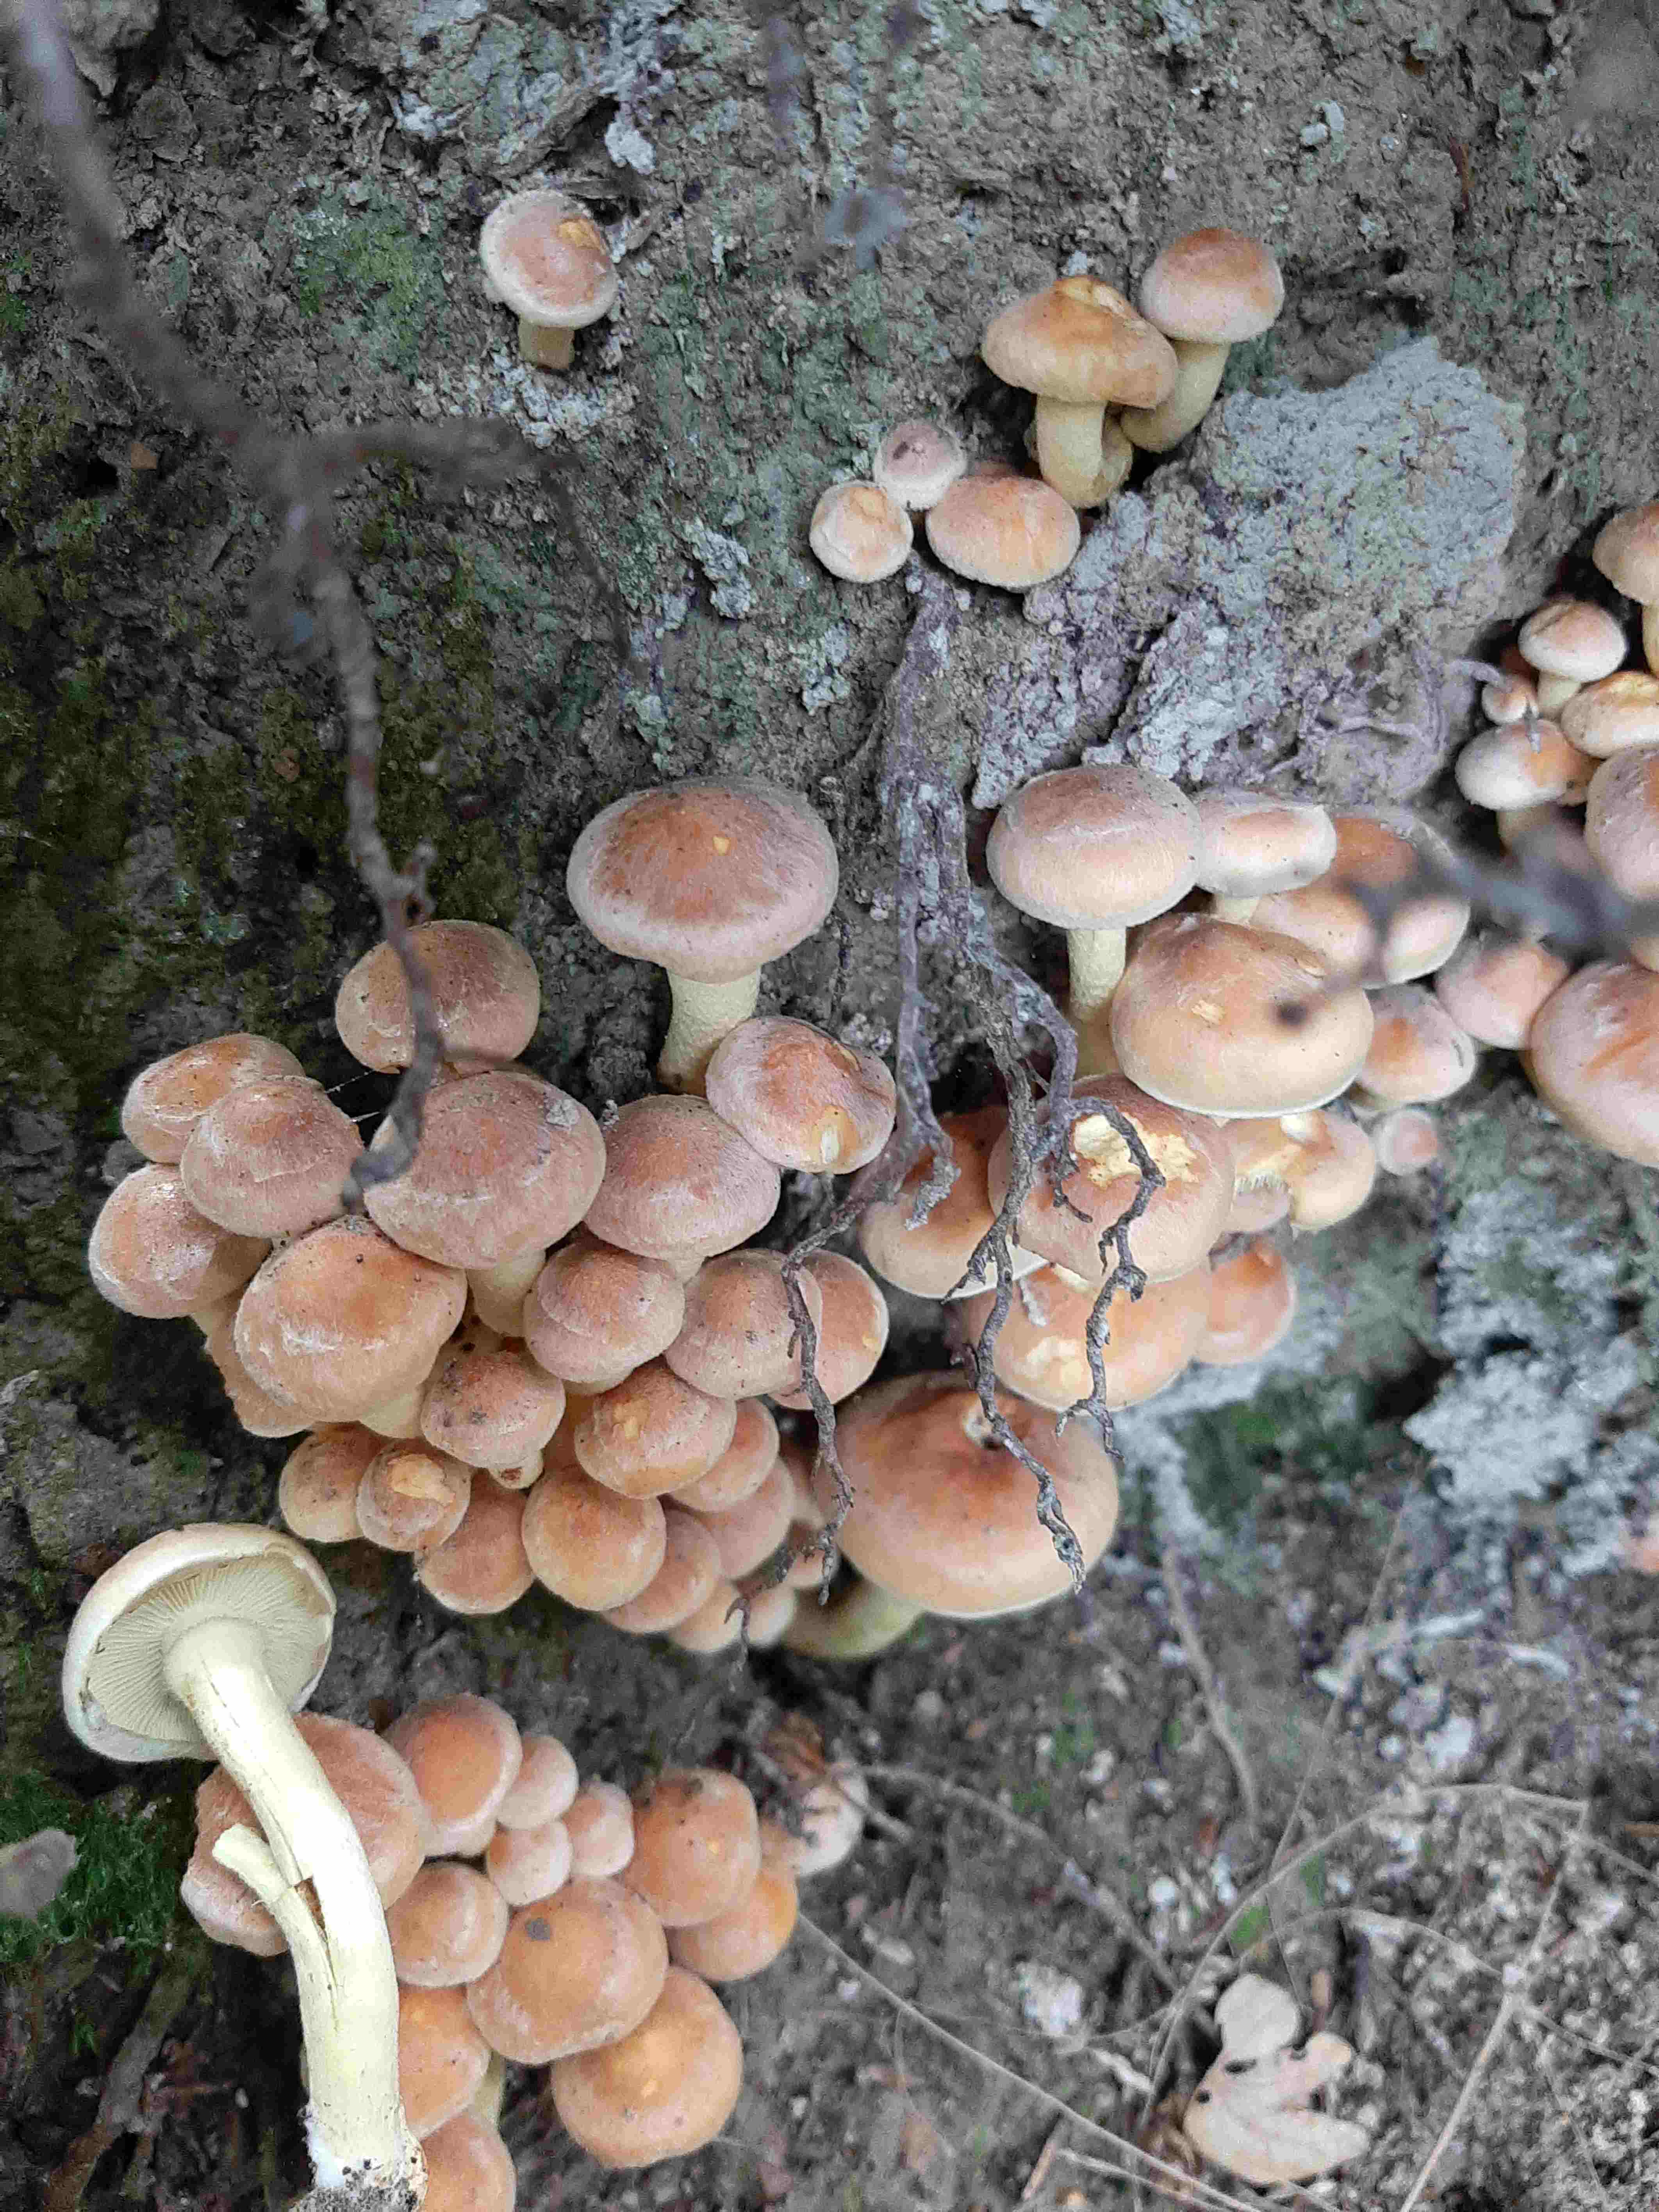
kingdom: Fungi
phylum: Basidiomycota
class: Agaricomycetes
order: Agaricales
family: Strophariaceae
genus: Hypholoma
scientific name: Hypholoma fasciculare
